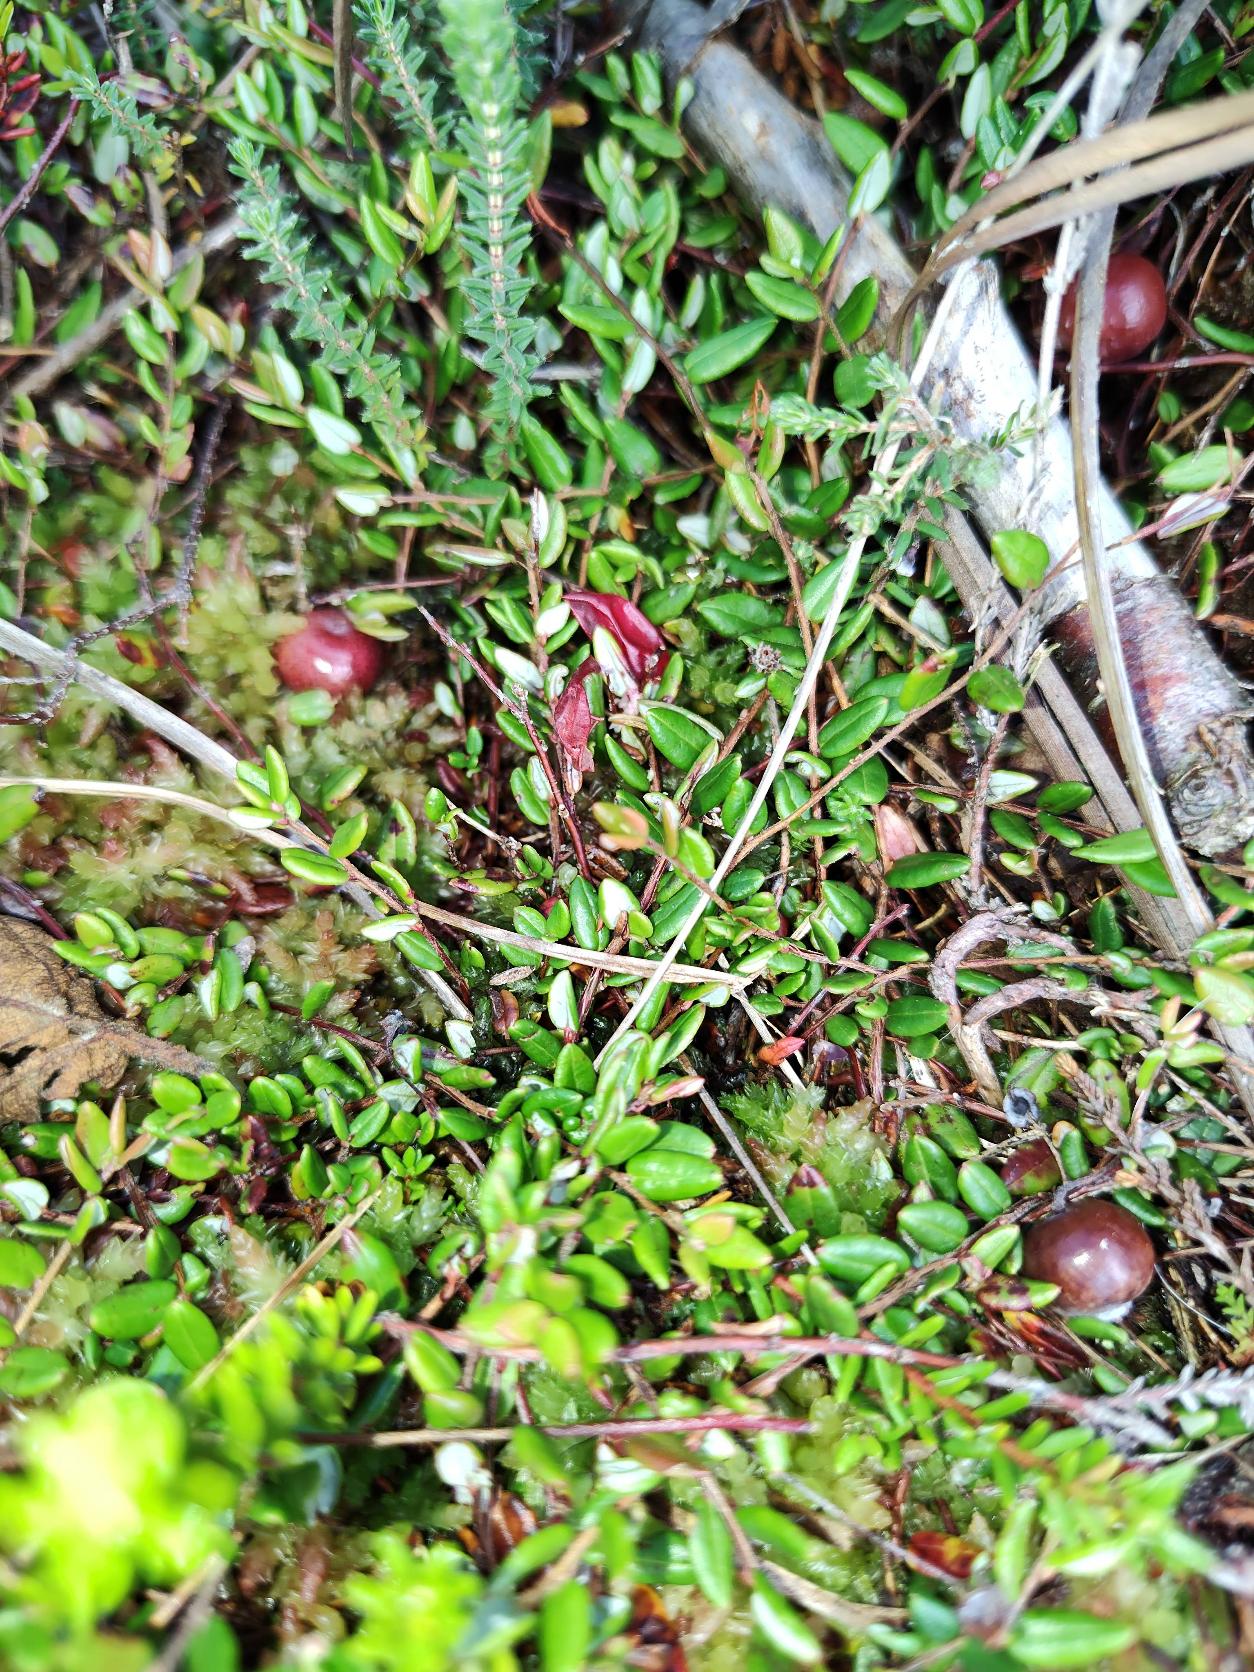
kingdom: Plantae
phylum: Tracheophyta
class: Magnoliopsida
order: Ericales
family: Ericaceae
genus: Vaccinium
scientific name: Vaccinium oxycoccos
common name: Tranebær
